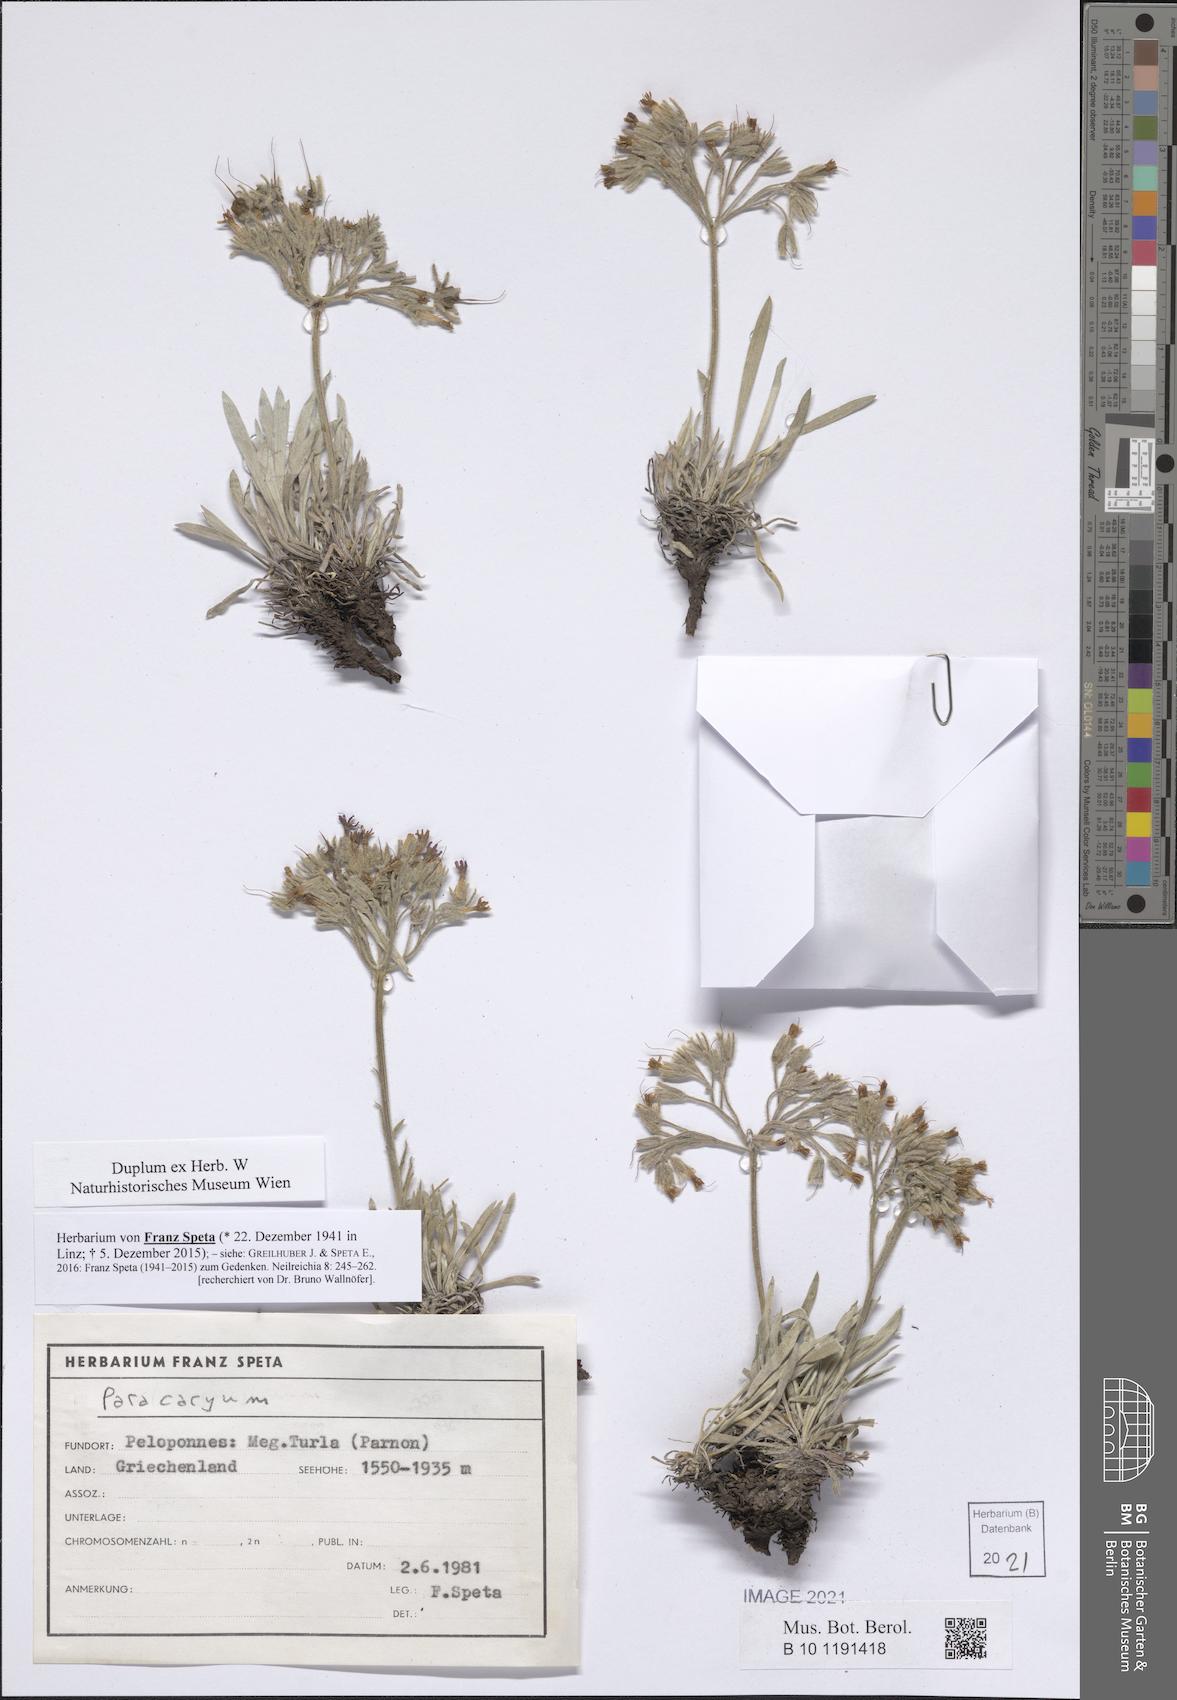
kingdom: Plantae
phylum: Tracheophyta
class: Magnoliopsida
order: Boraginales
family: Boraginaceae
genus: Paracaryum
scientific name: Paracaryum
